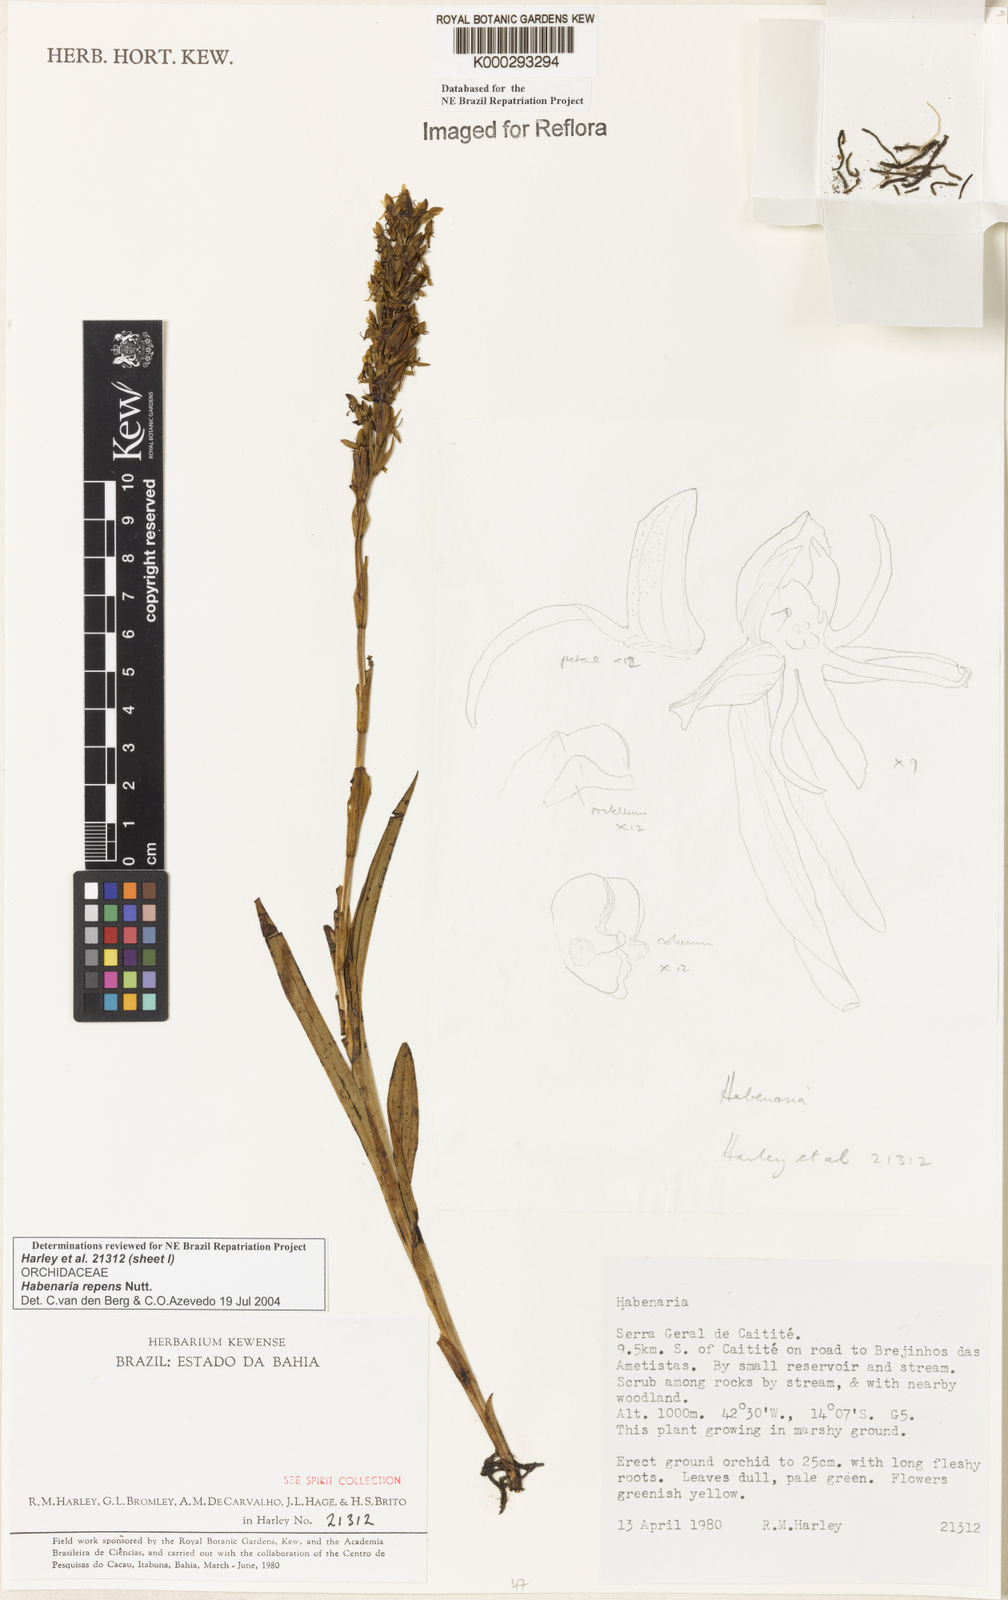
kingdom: Plantae
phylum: Tracheophyta
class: Liliopsida
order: Asparagales
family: Orchidaceae
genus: Habenaria
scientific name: Habenaria repens
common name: Water orchid
